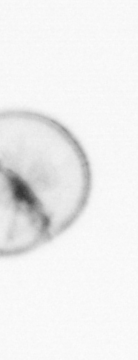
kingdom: Chromista
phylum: Myzozoa
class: Dinophyceae
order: Noctilucales
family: Noctilucaceae
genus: Noctiluca
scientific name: Noctiluca scintillans
